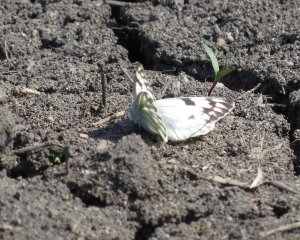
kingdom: Animalia
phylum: Arthropoda
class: Insecta
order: Lepidoptera
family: Pieridae
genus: Pontia
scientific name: Pontia occidentalis
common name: Western White
